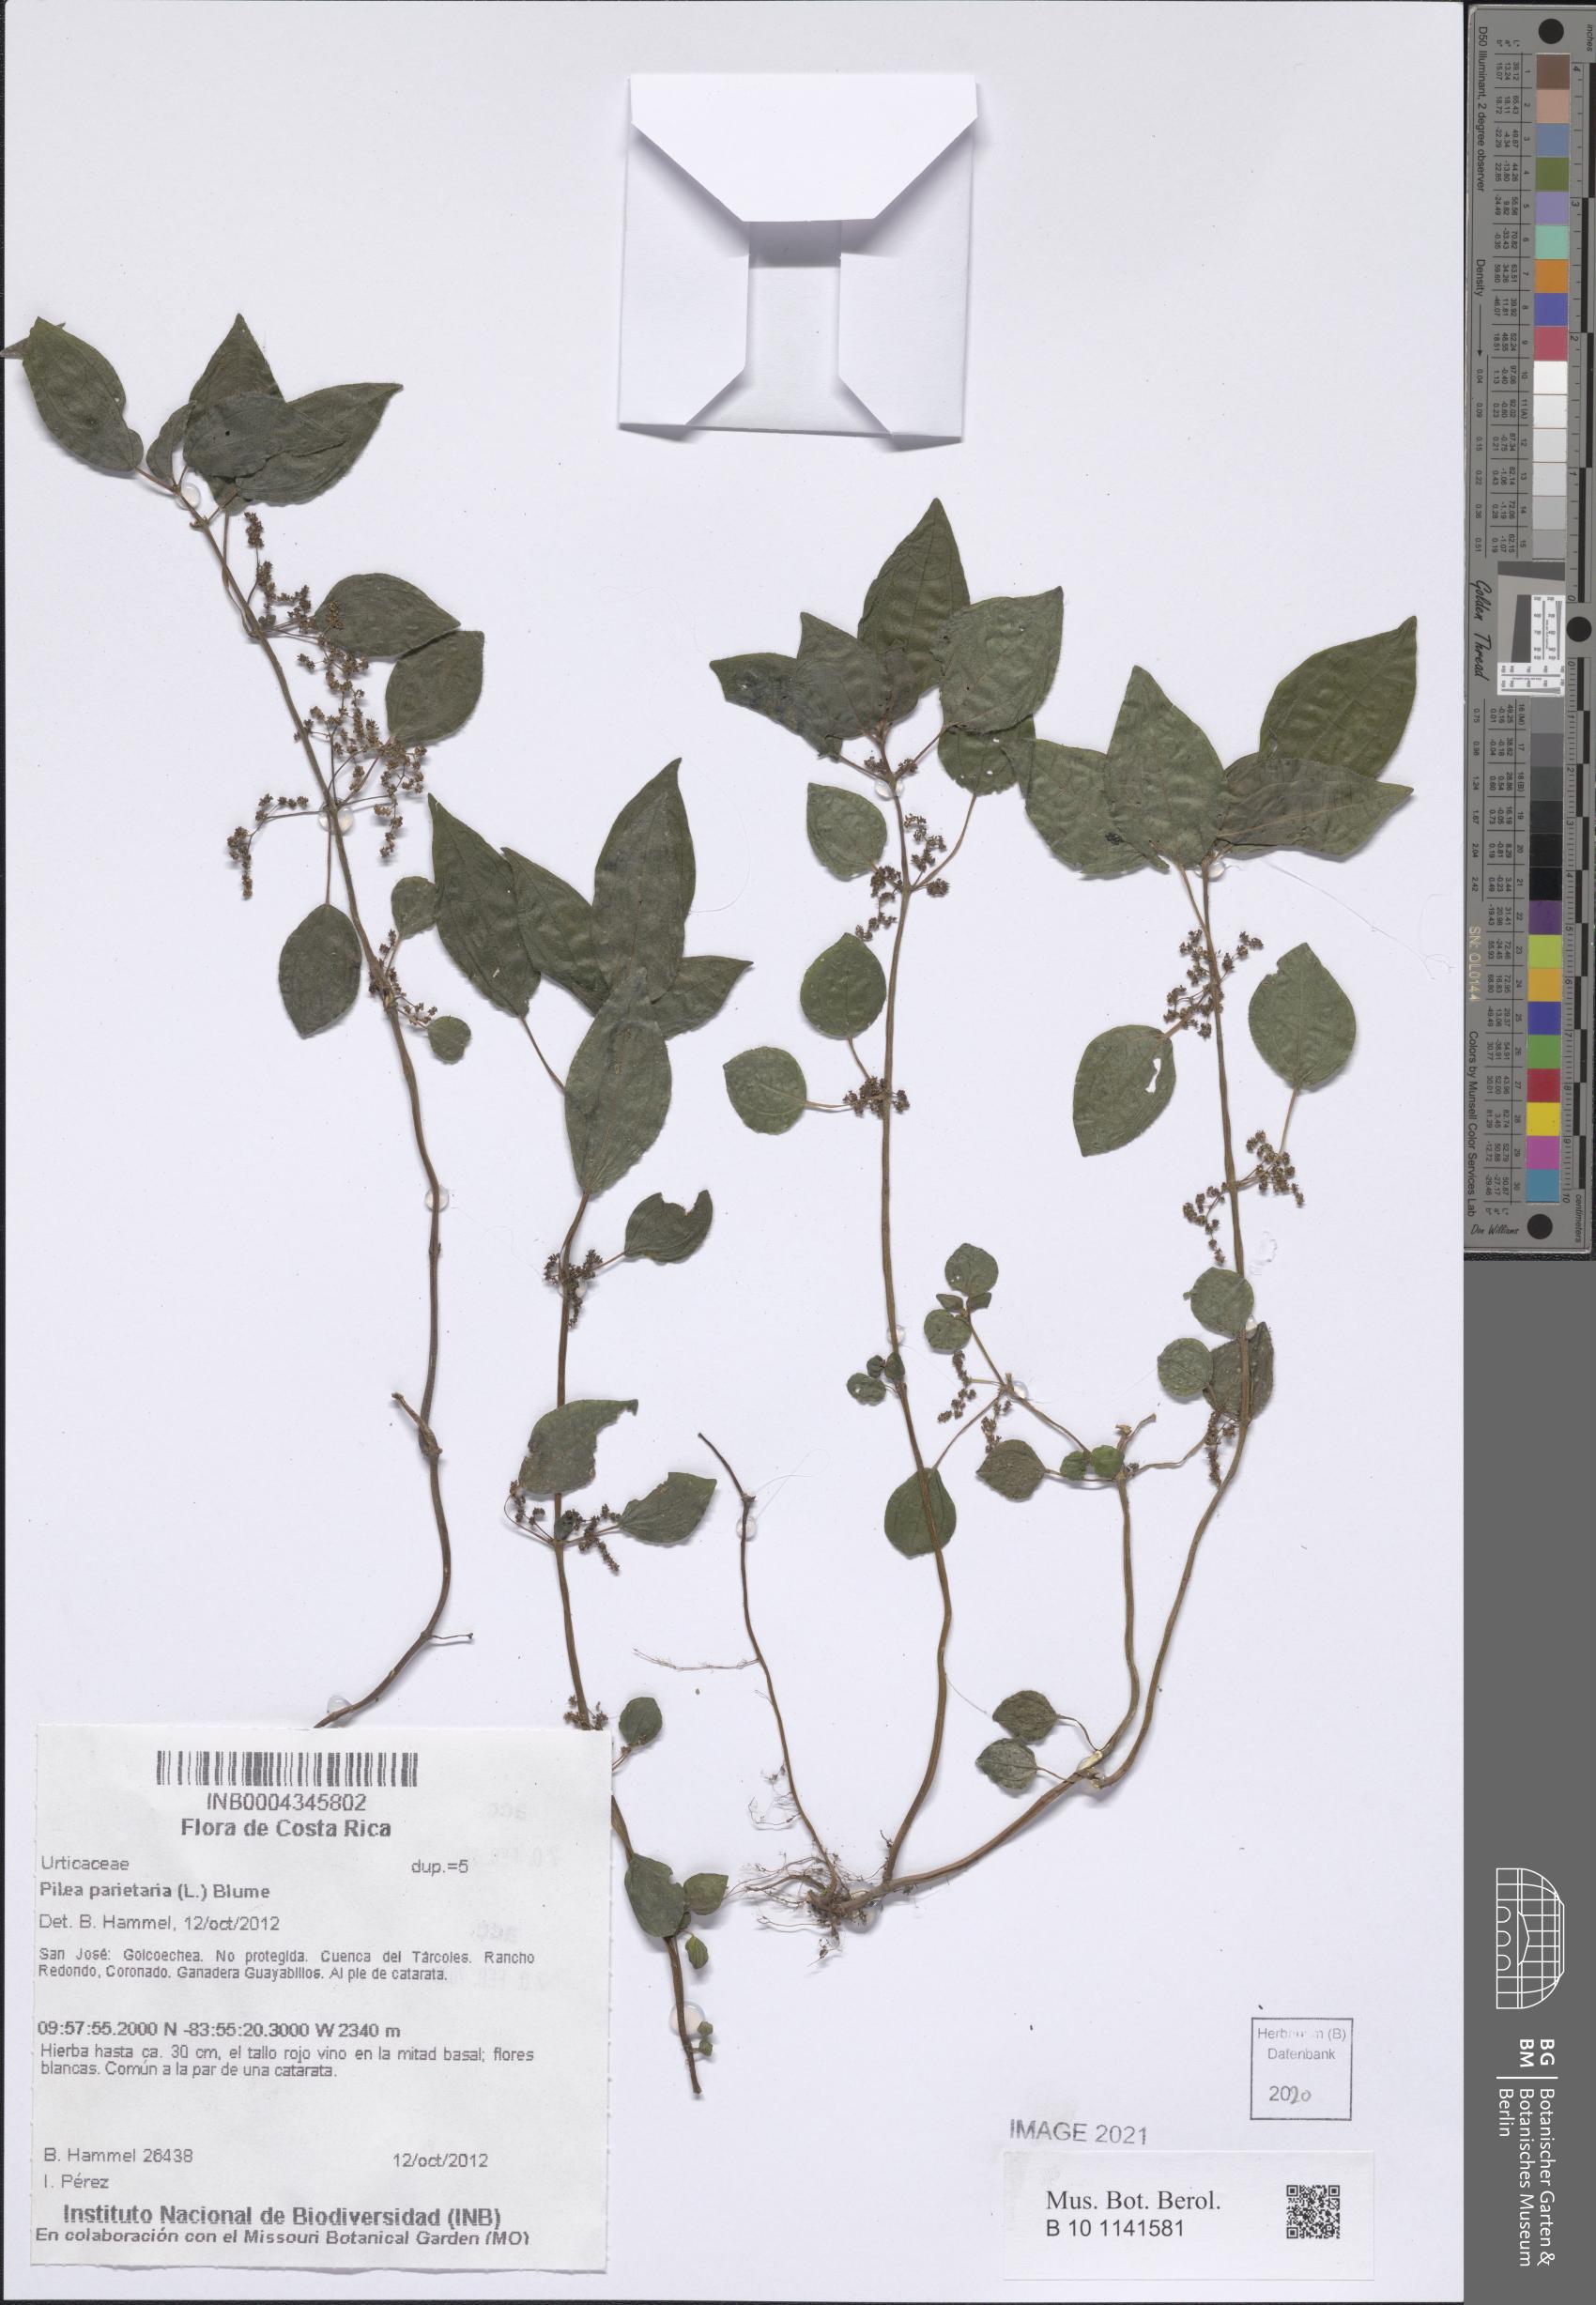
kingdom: Plantae
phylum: Tracheophyta
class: Magnoliopsida
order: Rosales
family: Urticaceae
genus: Pilea
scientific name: Pilea parietaria
